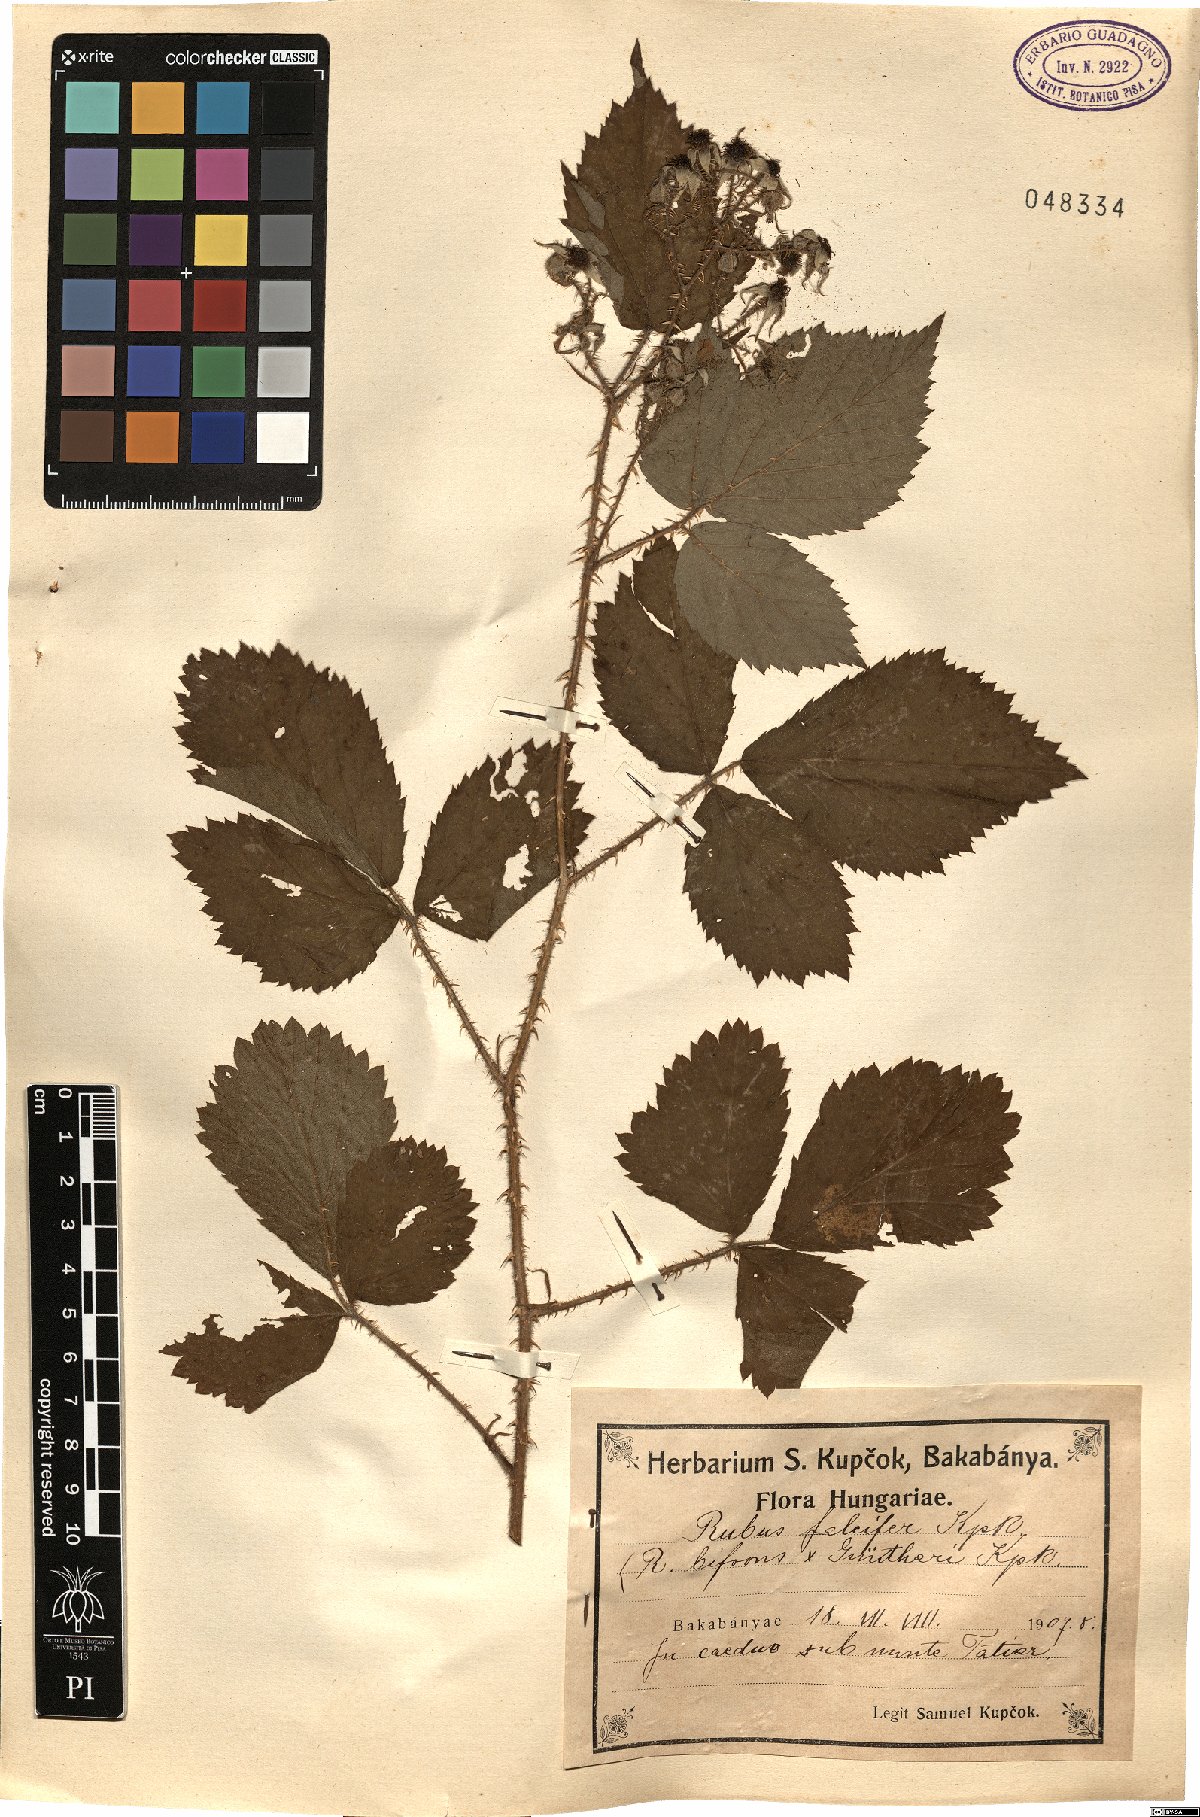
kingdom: Plantae
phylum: Tracheophyta
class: Magnoliopsida
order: Rosales
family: Rosaceae
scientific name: Rosaceae
